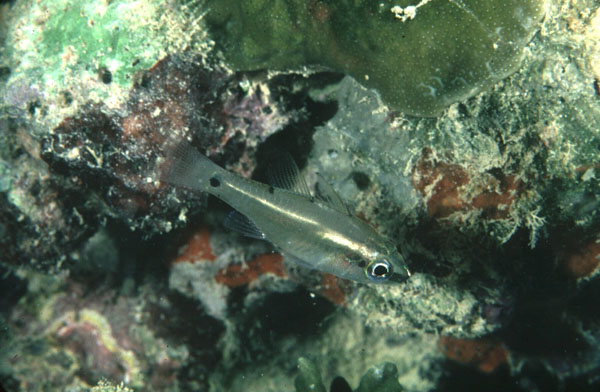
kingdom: Animalia
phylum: Chordata
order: Perciformes
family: Apogonidae
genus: Fibramia
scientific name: Fibramia thermalis
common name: Sangi cardinalfish
